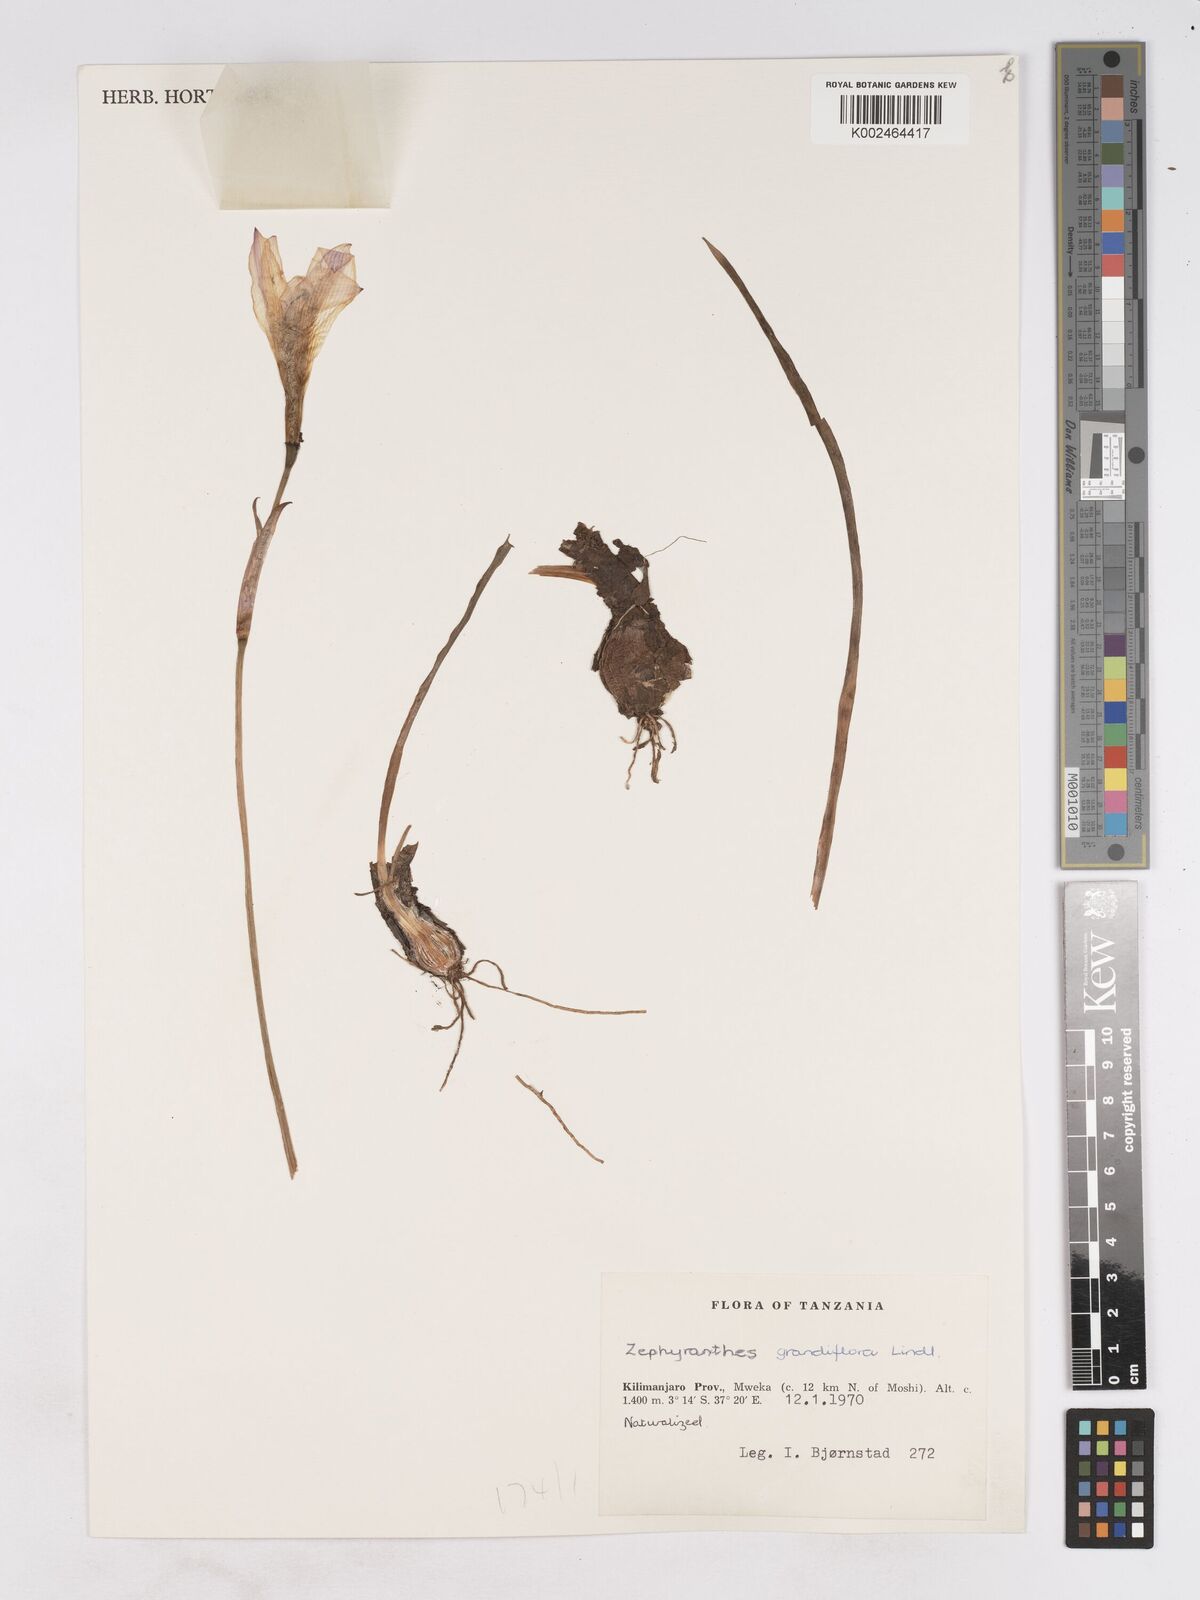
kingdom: Plantae
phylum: Tracheophyta
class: Liliopsida
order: Asparagales
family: Amaryllidaceae
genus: Zephyranthes
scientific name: Zephyranthes minuta
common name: Pink rain lily
